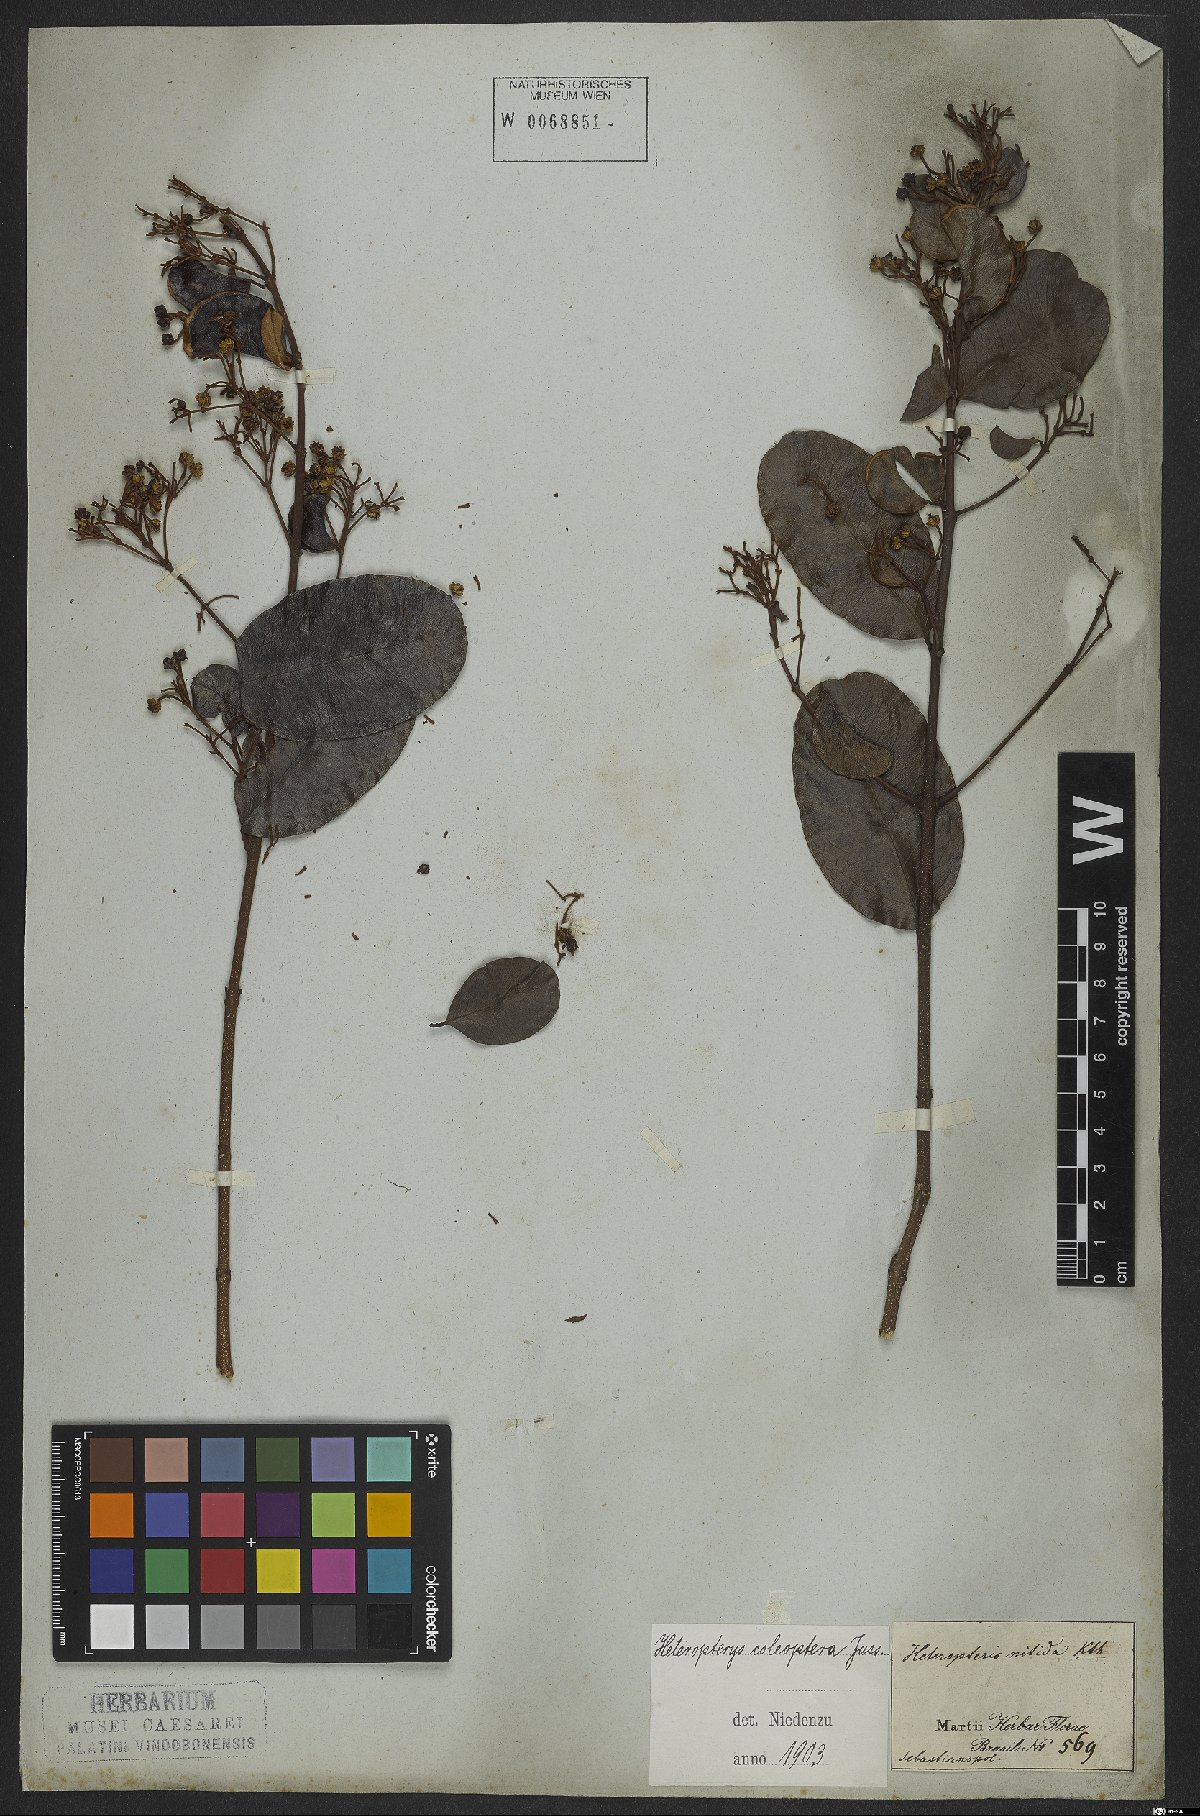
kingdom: Plantae
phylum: Tracheophyta
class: Magnoliopsida
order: Malpighiales
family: Malpighiaceae
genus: Heteropterys
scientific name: Heteropterys coleoptera
